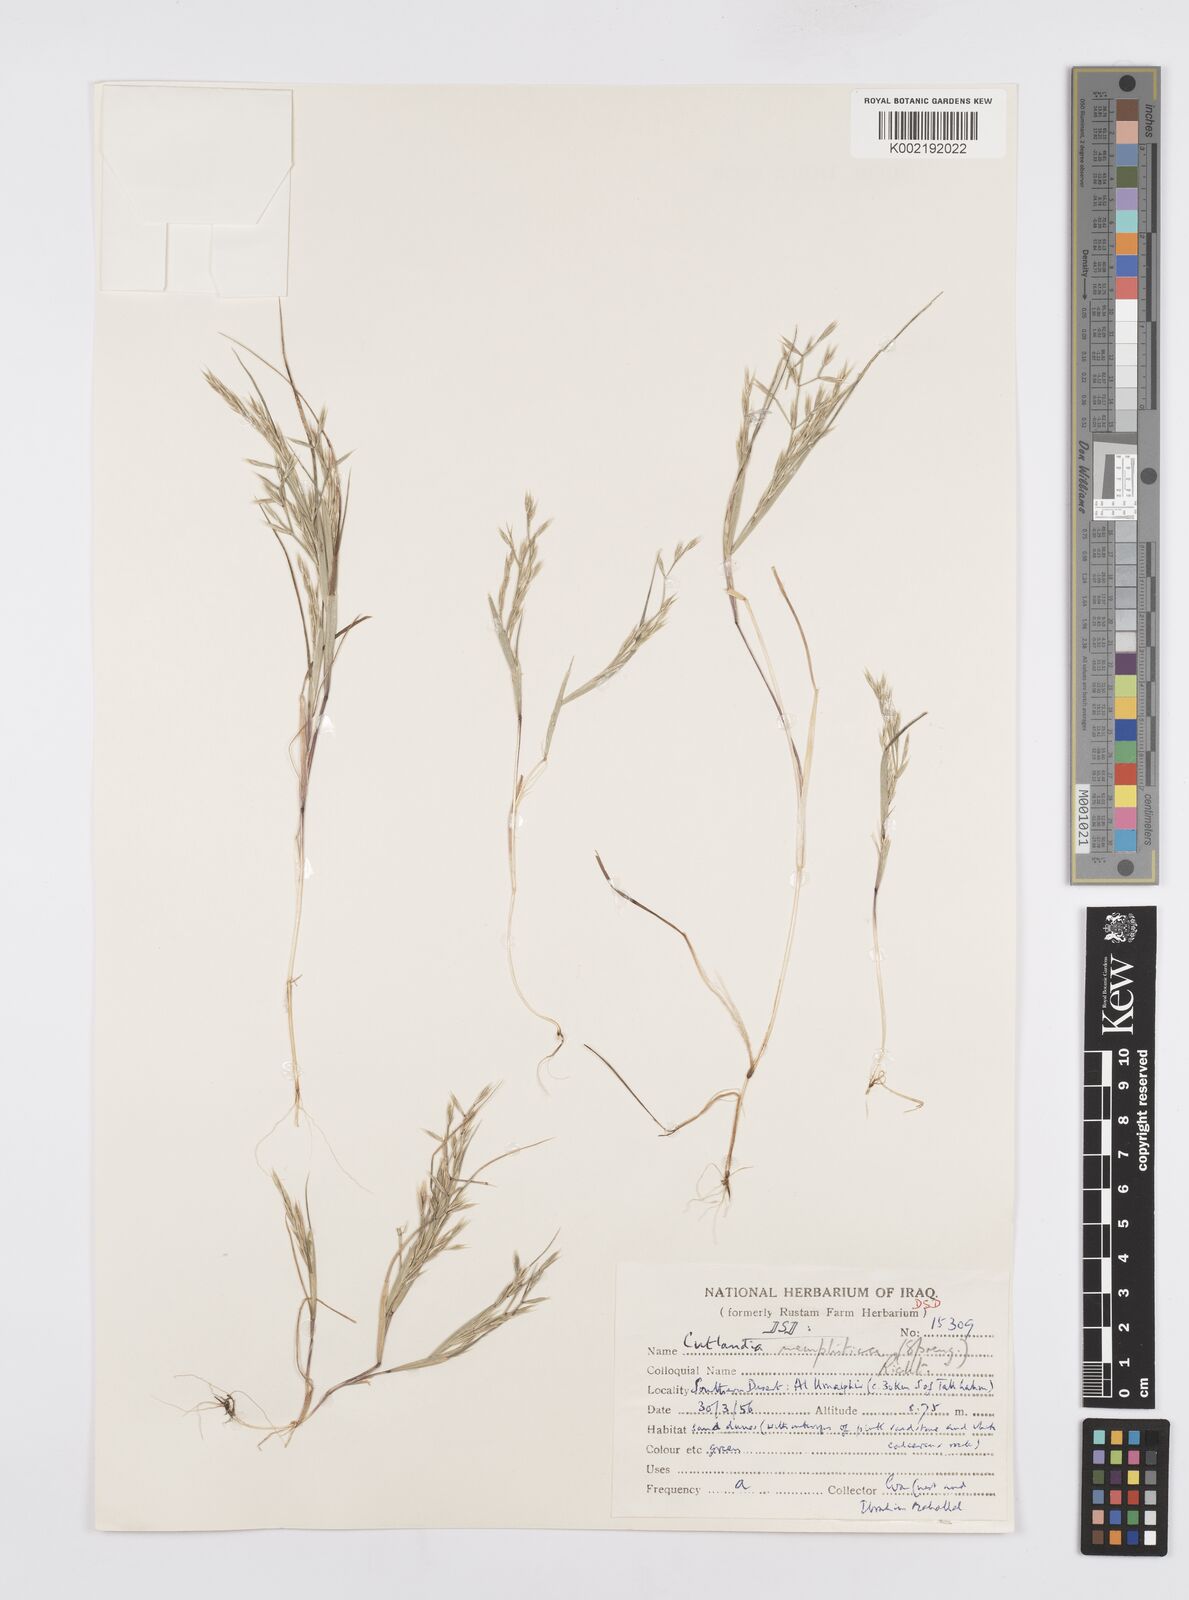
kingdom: Plantae
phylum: Tracheophyta
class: Liliopsida
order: Poales
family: Poaceae
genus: Cutandia
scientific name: Cutandia memphitica
